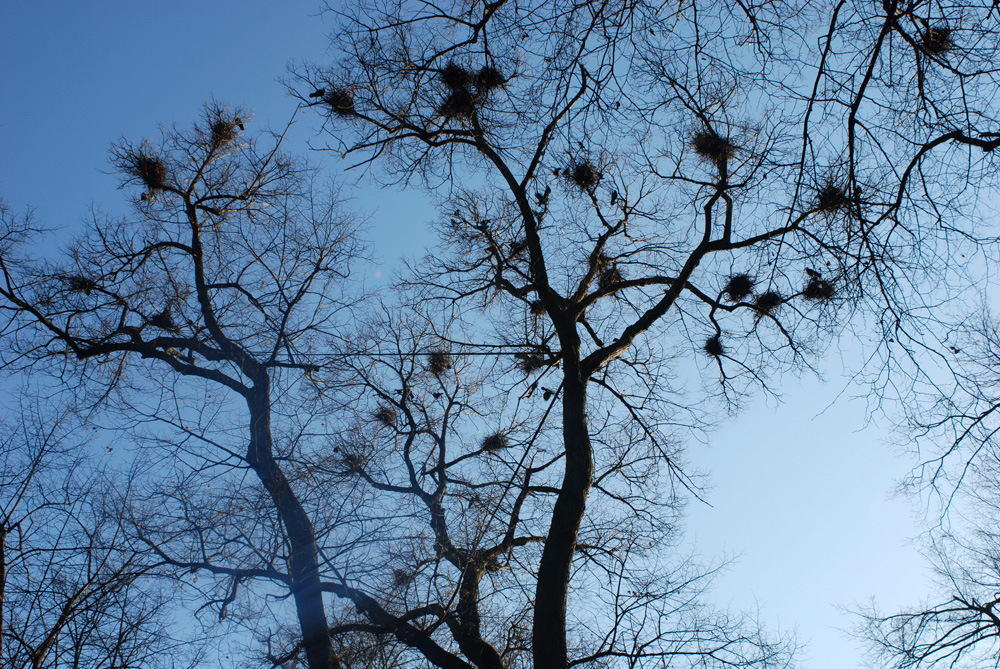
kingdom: Animalia
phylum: Chordata
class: Aves
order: Passeriformes
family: Corvidae
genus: Corvus
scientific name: Corvus frugilegus
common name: Rook
